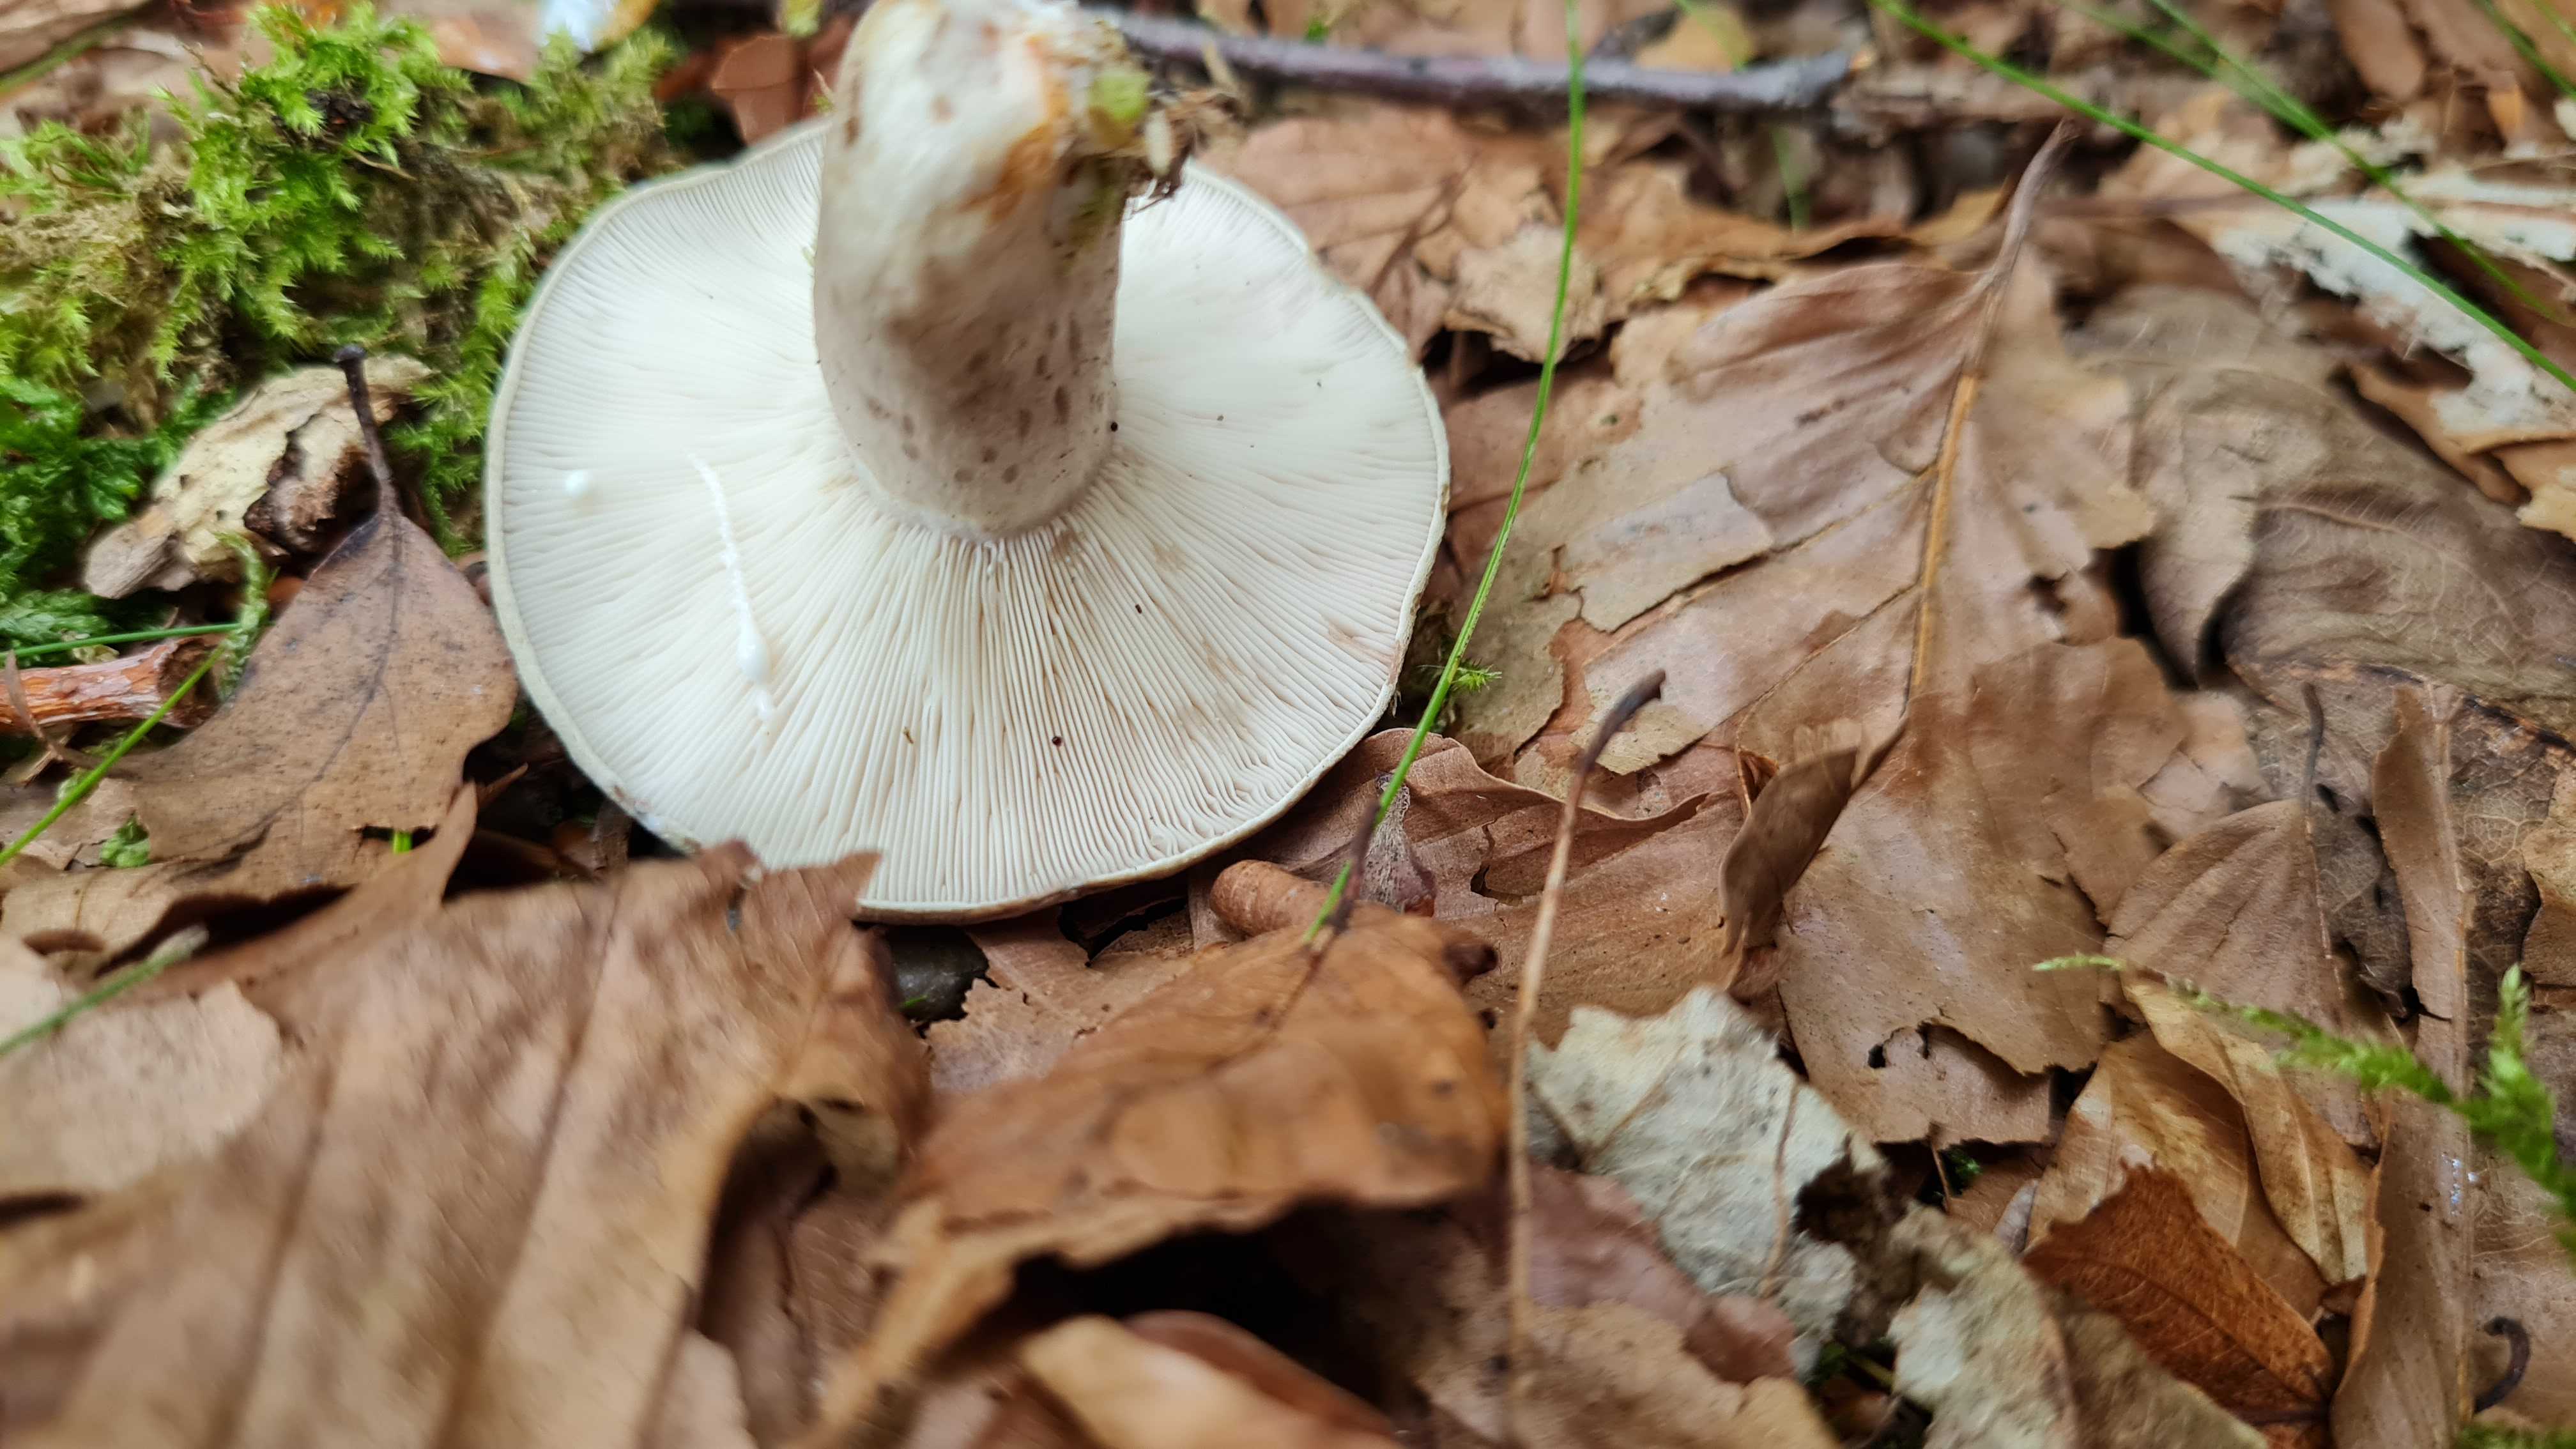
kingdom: Fungi
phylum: Basidiomycota
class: Agaricomycetes
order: Russulales
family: Russulaceae
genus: Lactarius
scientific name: Lactarius blennius
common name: dråbeplettet mælkehat
